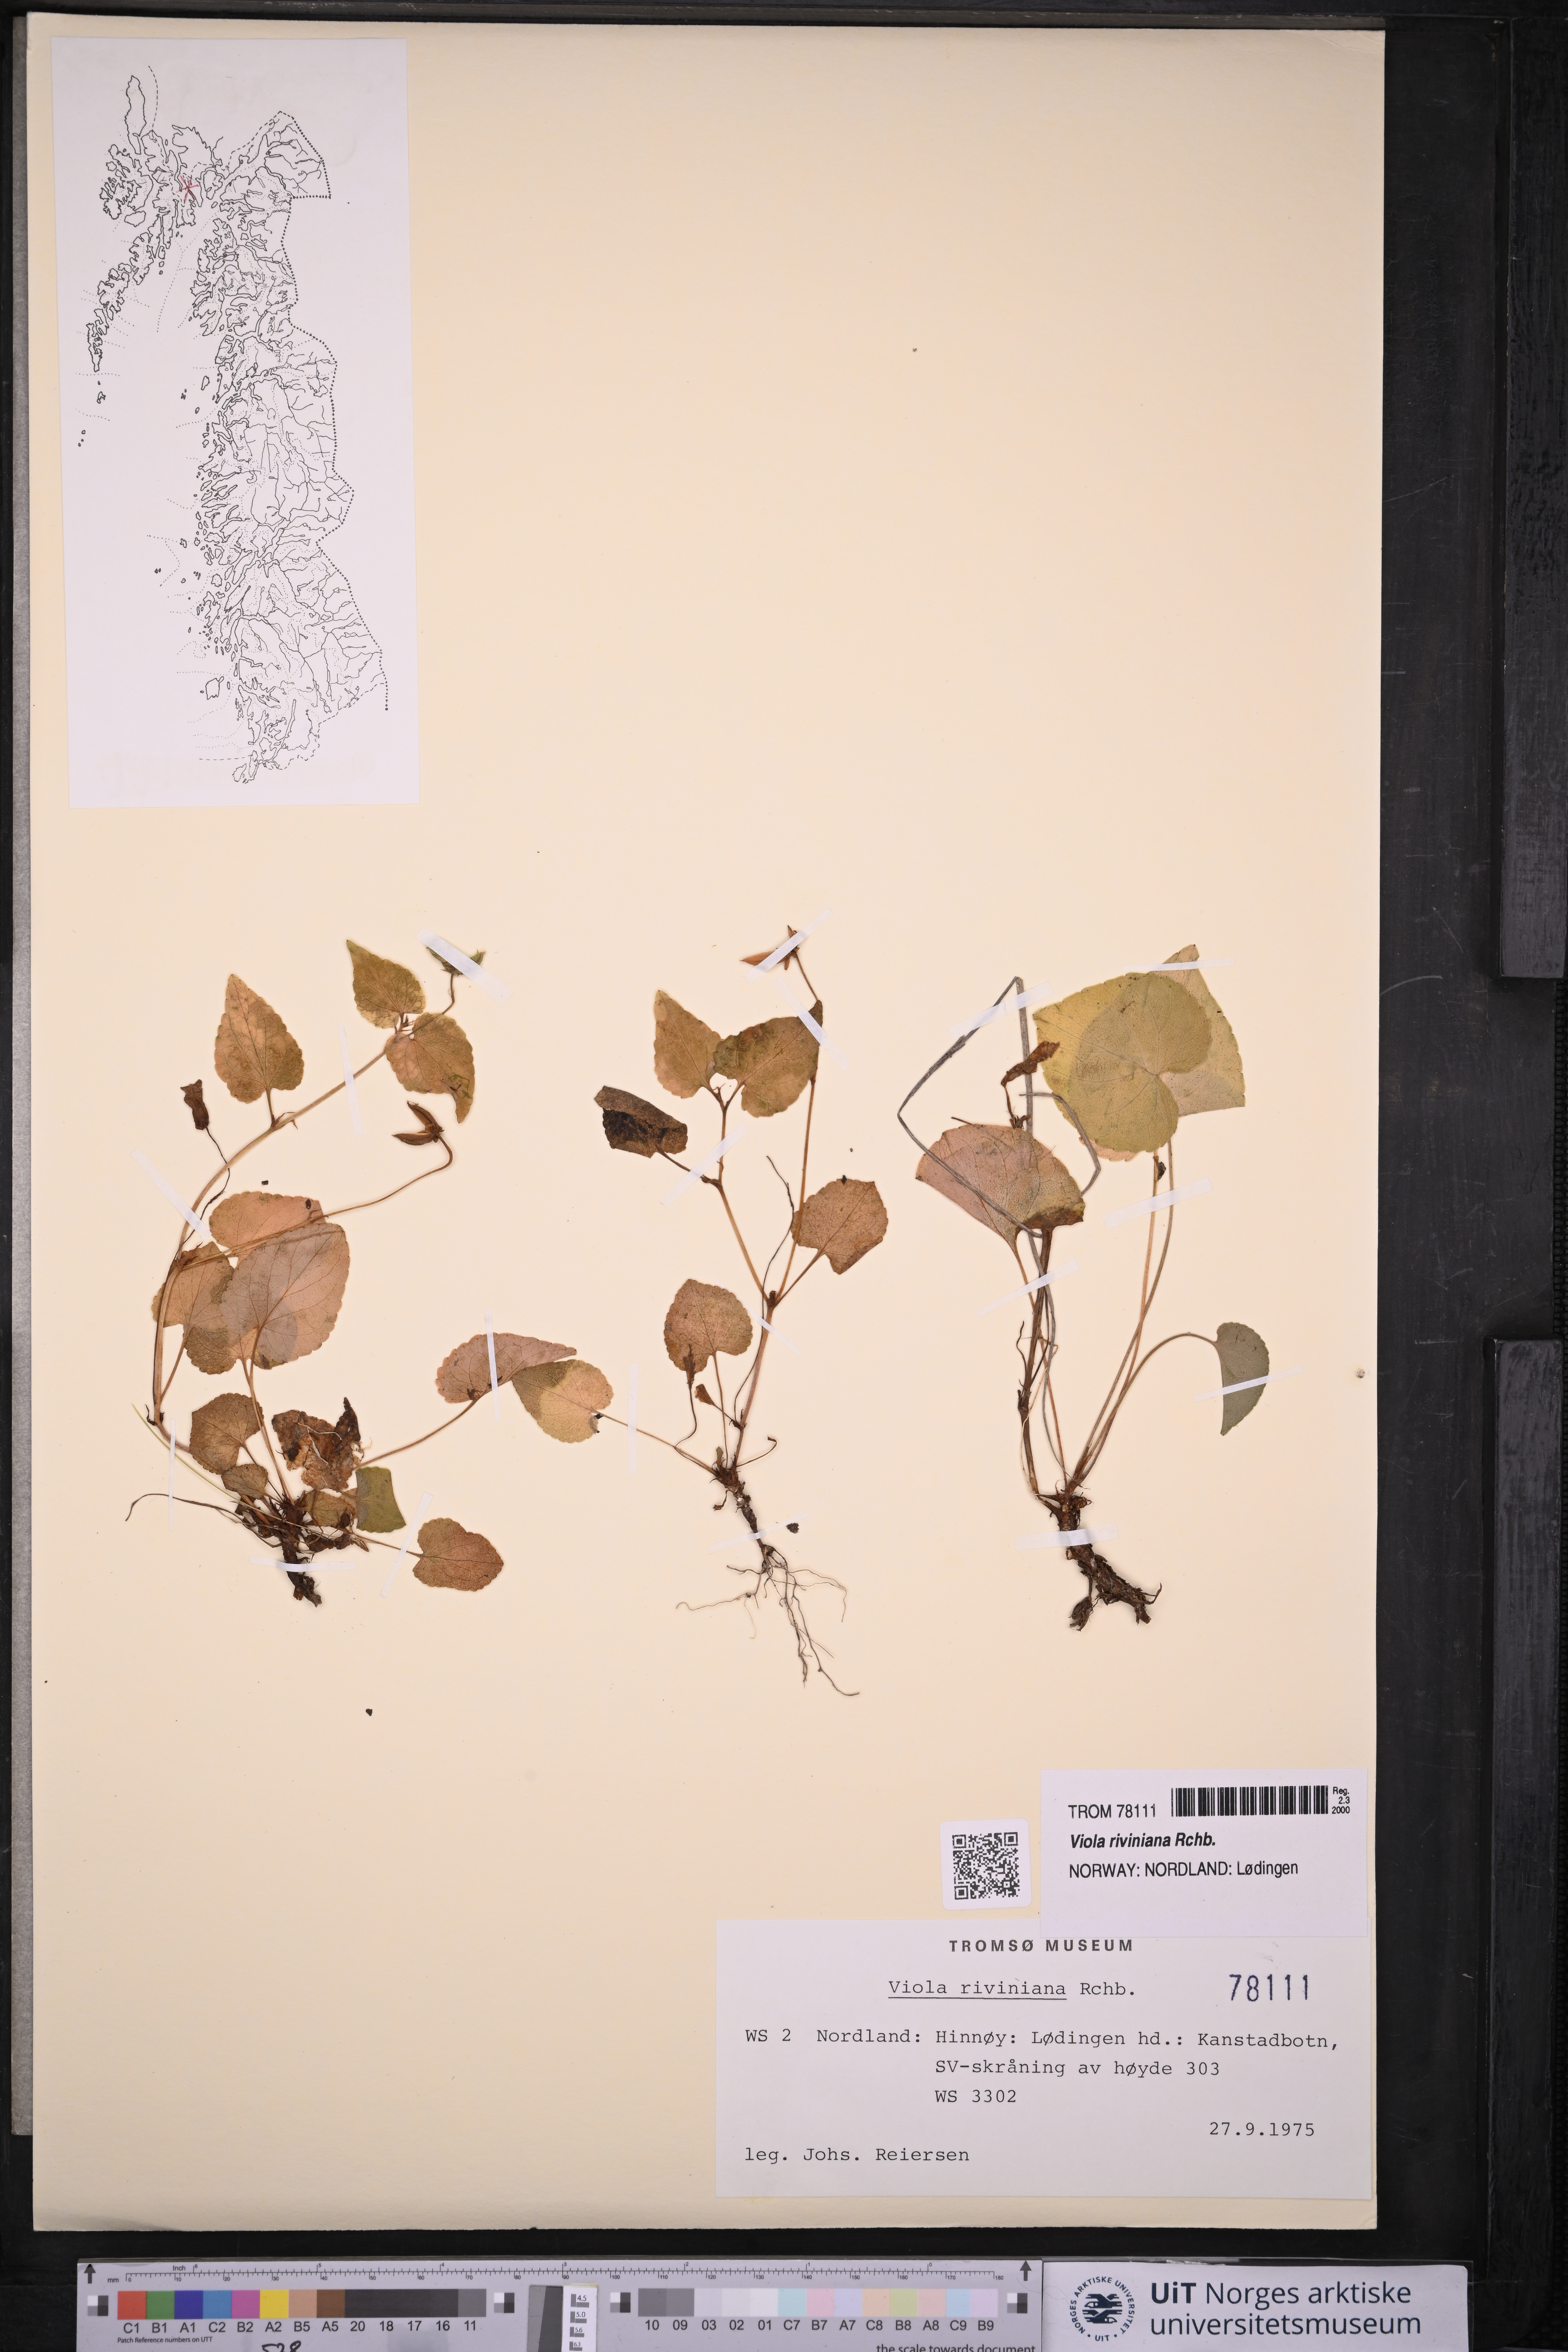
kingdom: Plantae
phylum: Tracheophyta
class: Magnoliopsida
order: Malpighiales
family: Violaceae
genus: Viola
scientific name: Viola riviniana
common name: Common dog-violet
